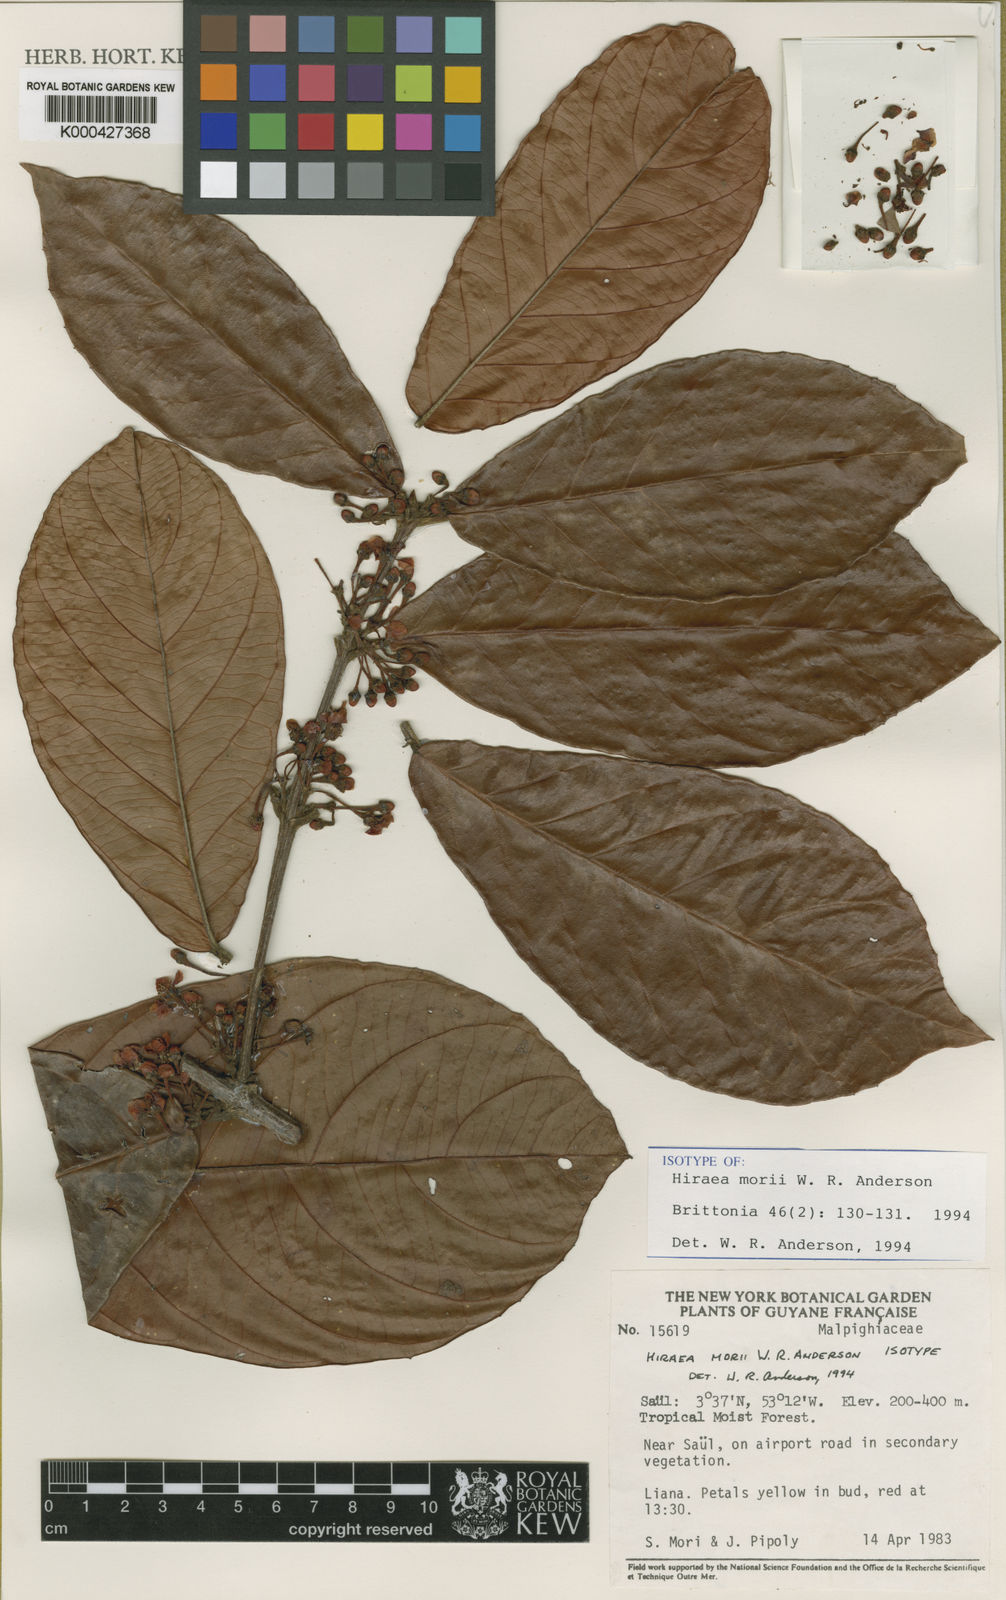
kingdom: Plantae
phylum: Tracheophyta
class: Magnoliopsida
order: Malpighiales
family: Malpighiaceae
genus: Hiraea
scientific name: Hiraea morii
